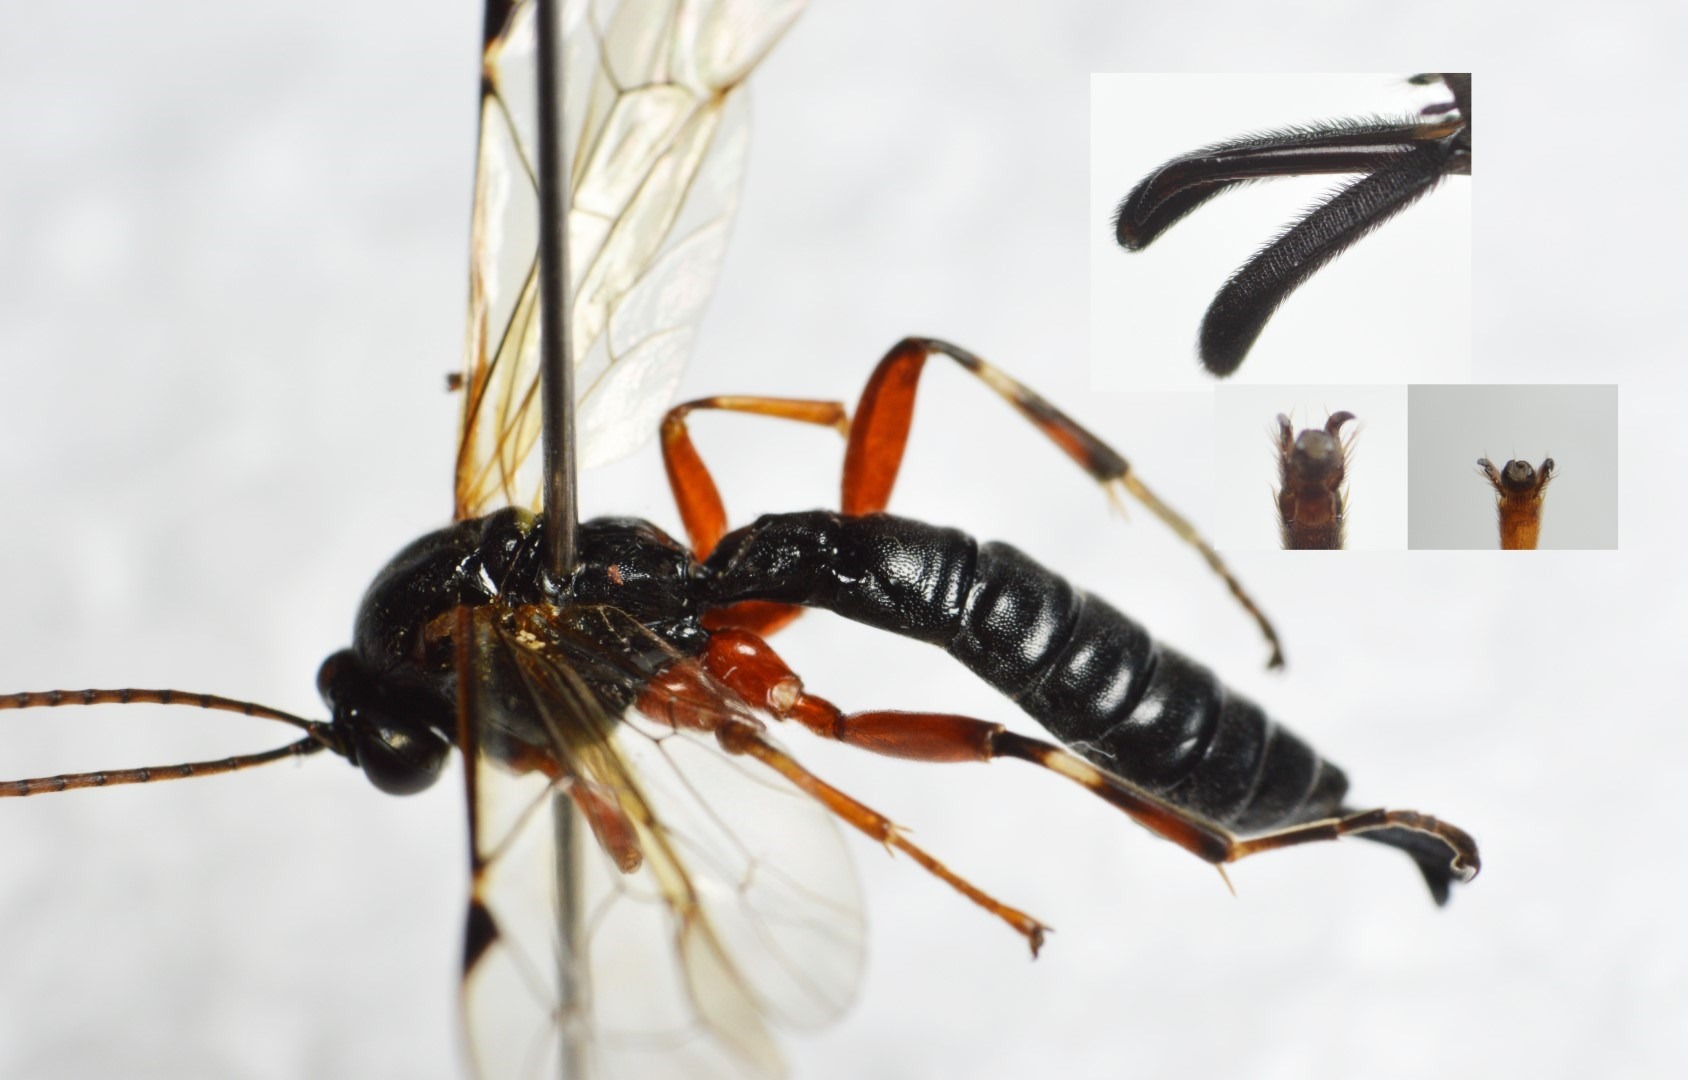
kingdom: Animalia
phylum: Arthropoda
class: Insecta
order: Hymenoptera
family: Ichneumonidae
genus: Apechthis
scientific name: Apechthis quadridentata
